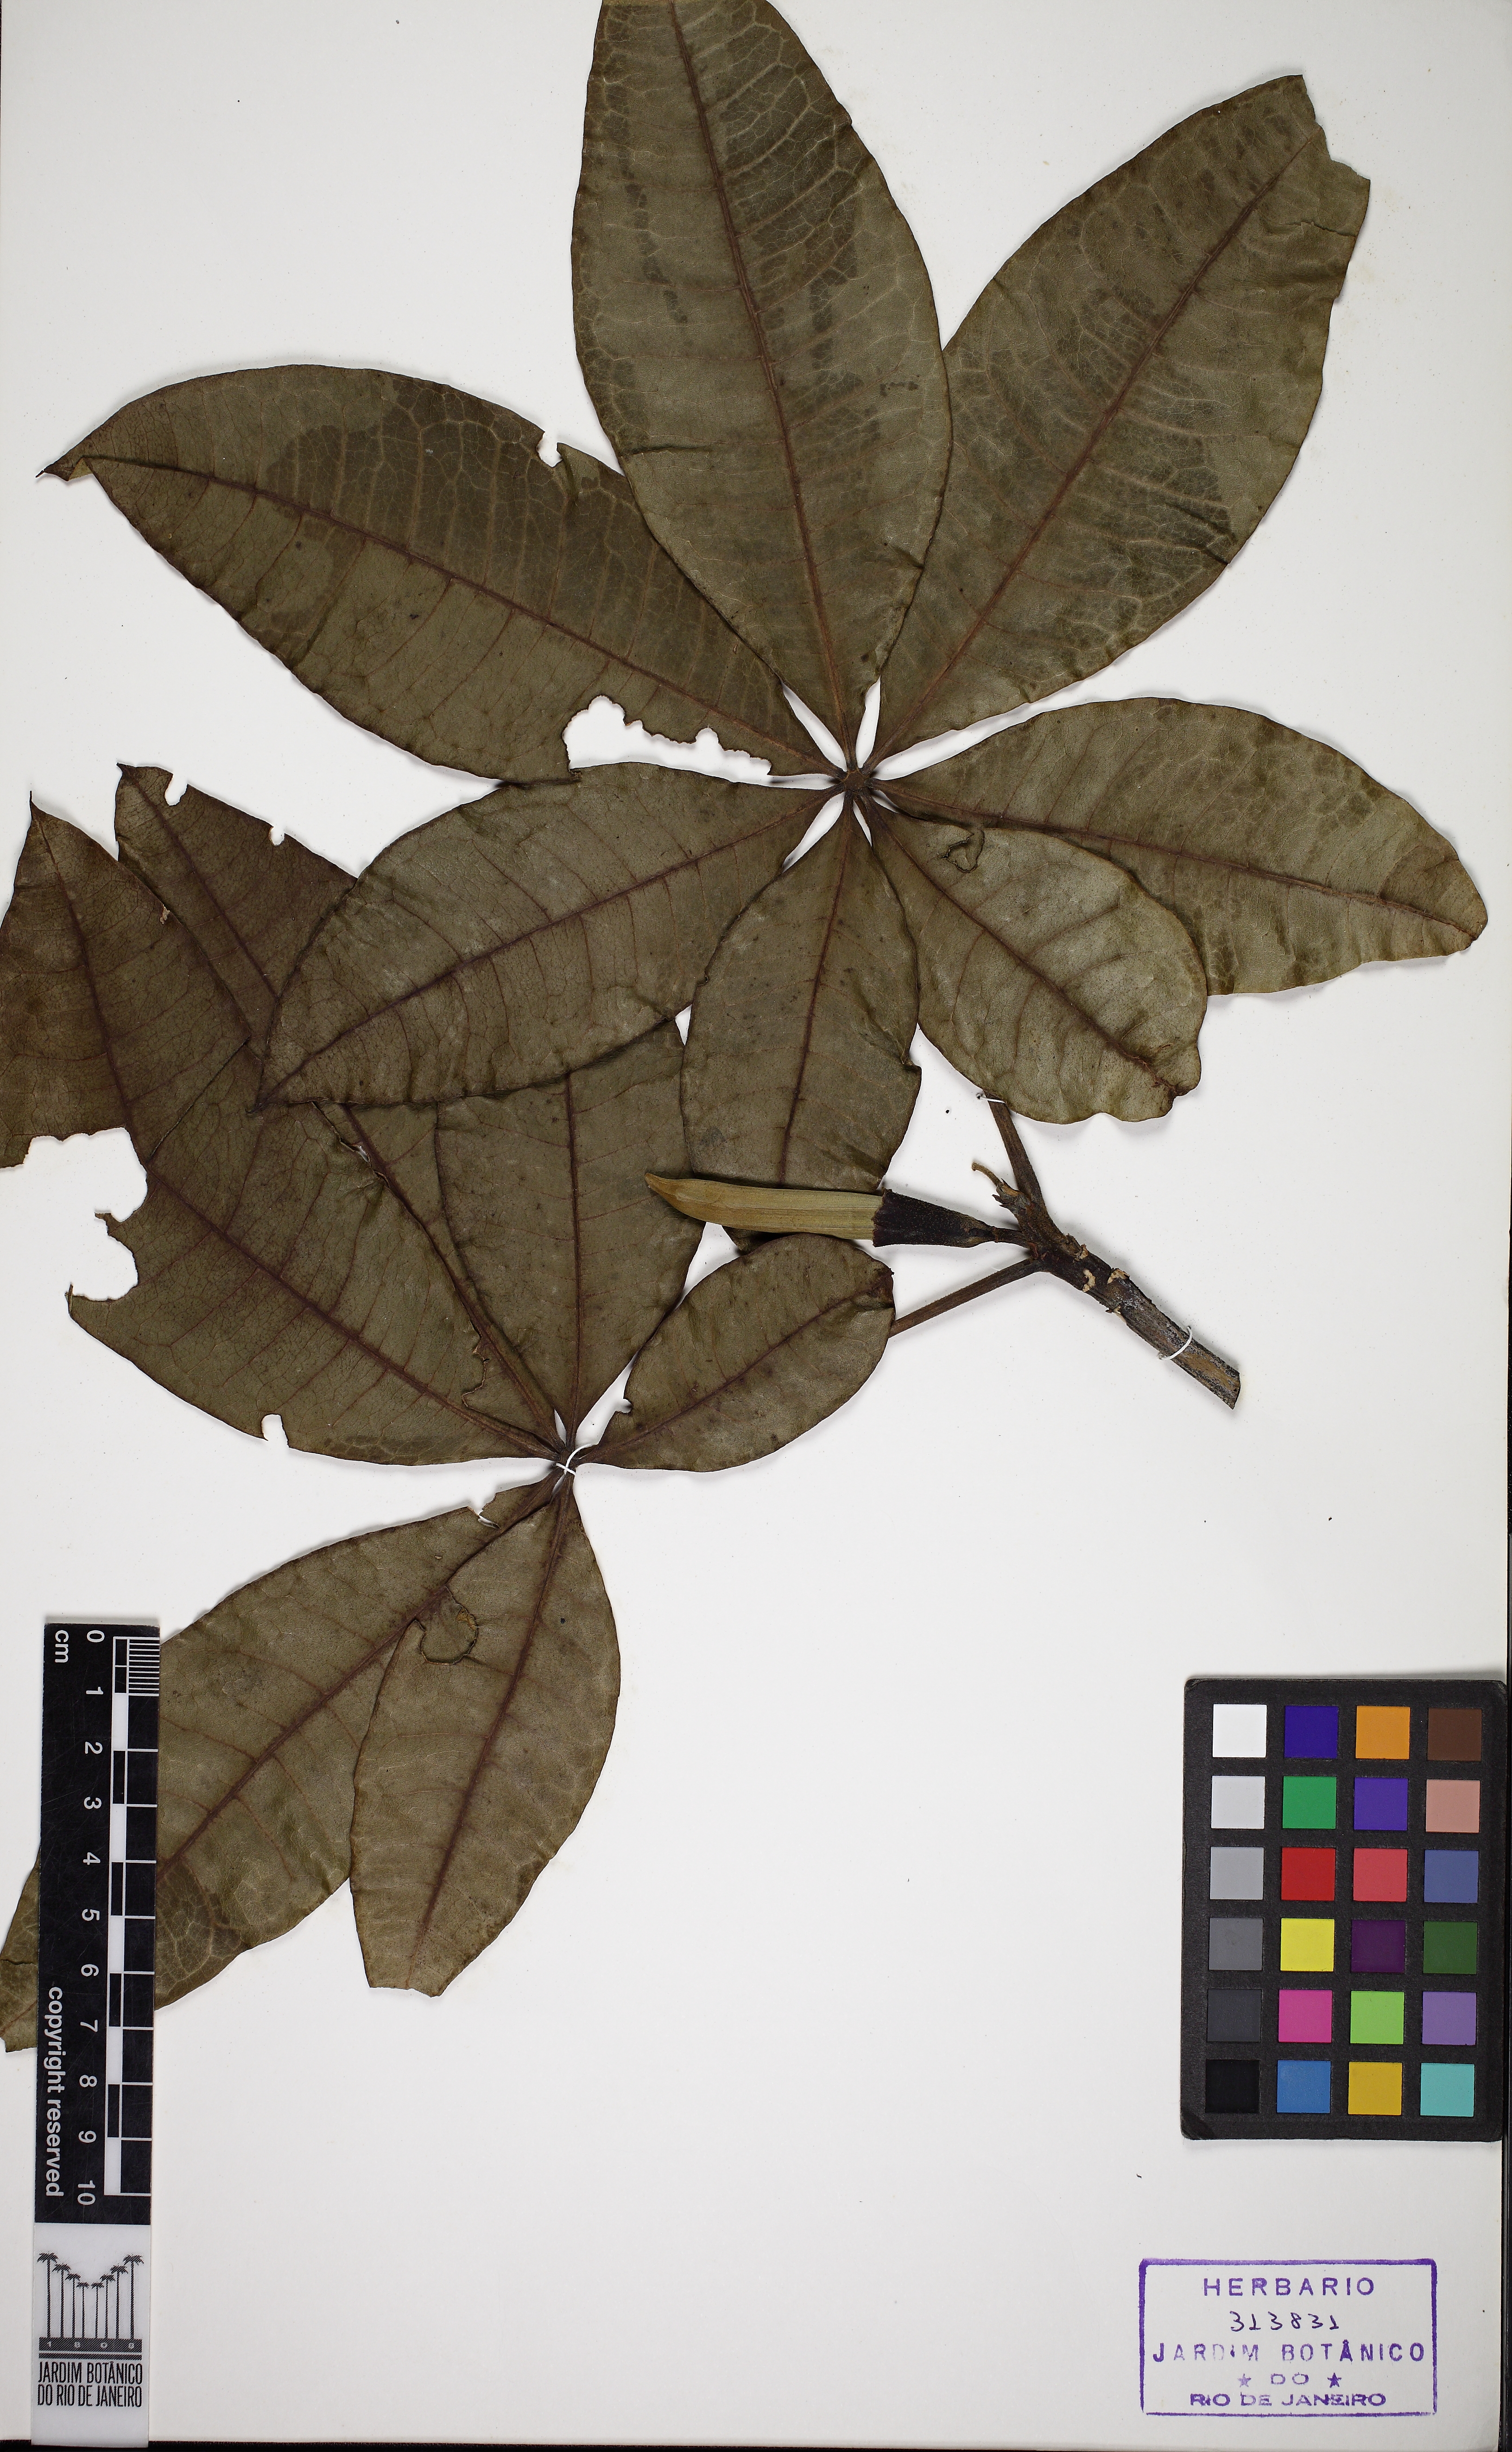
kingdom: Plantae
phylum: Tracheophyta
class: Magnoliopsida
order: Malvales
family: Malvaceae
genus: Pachira
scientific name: Pachira glabra
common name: Moneytree
